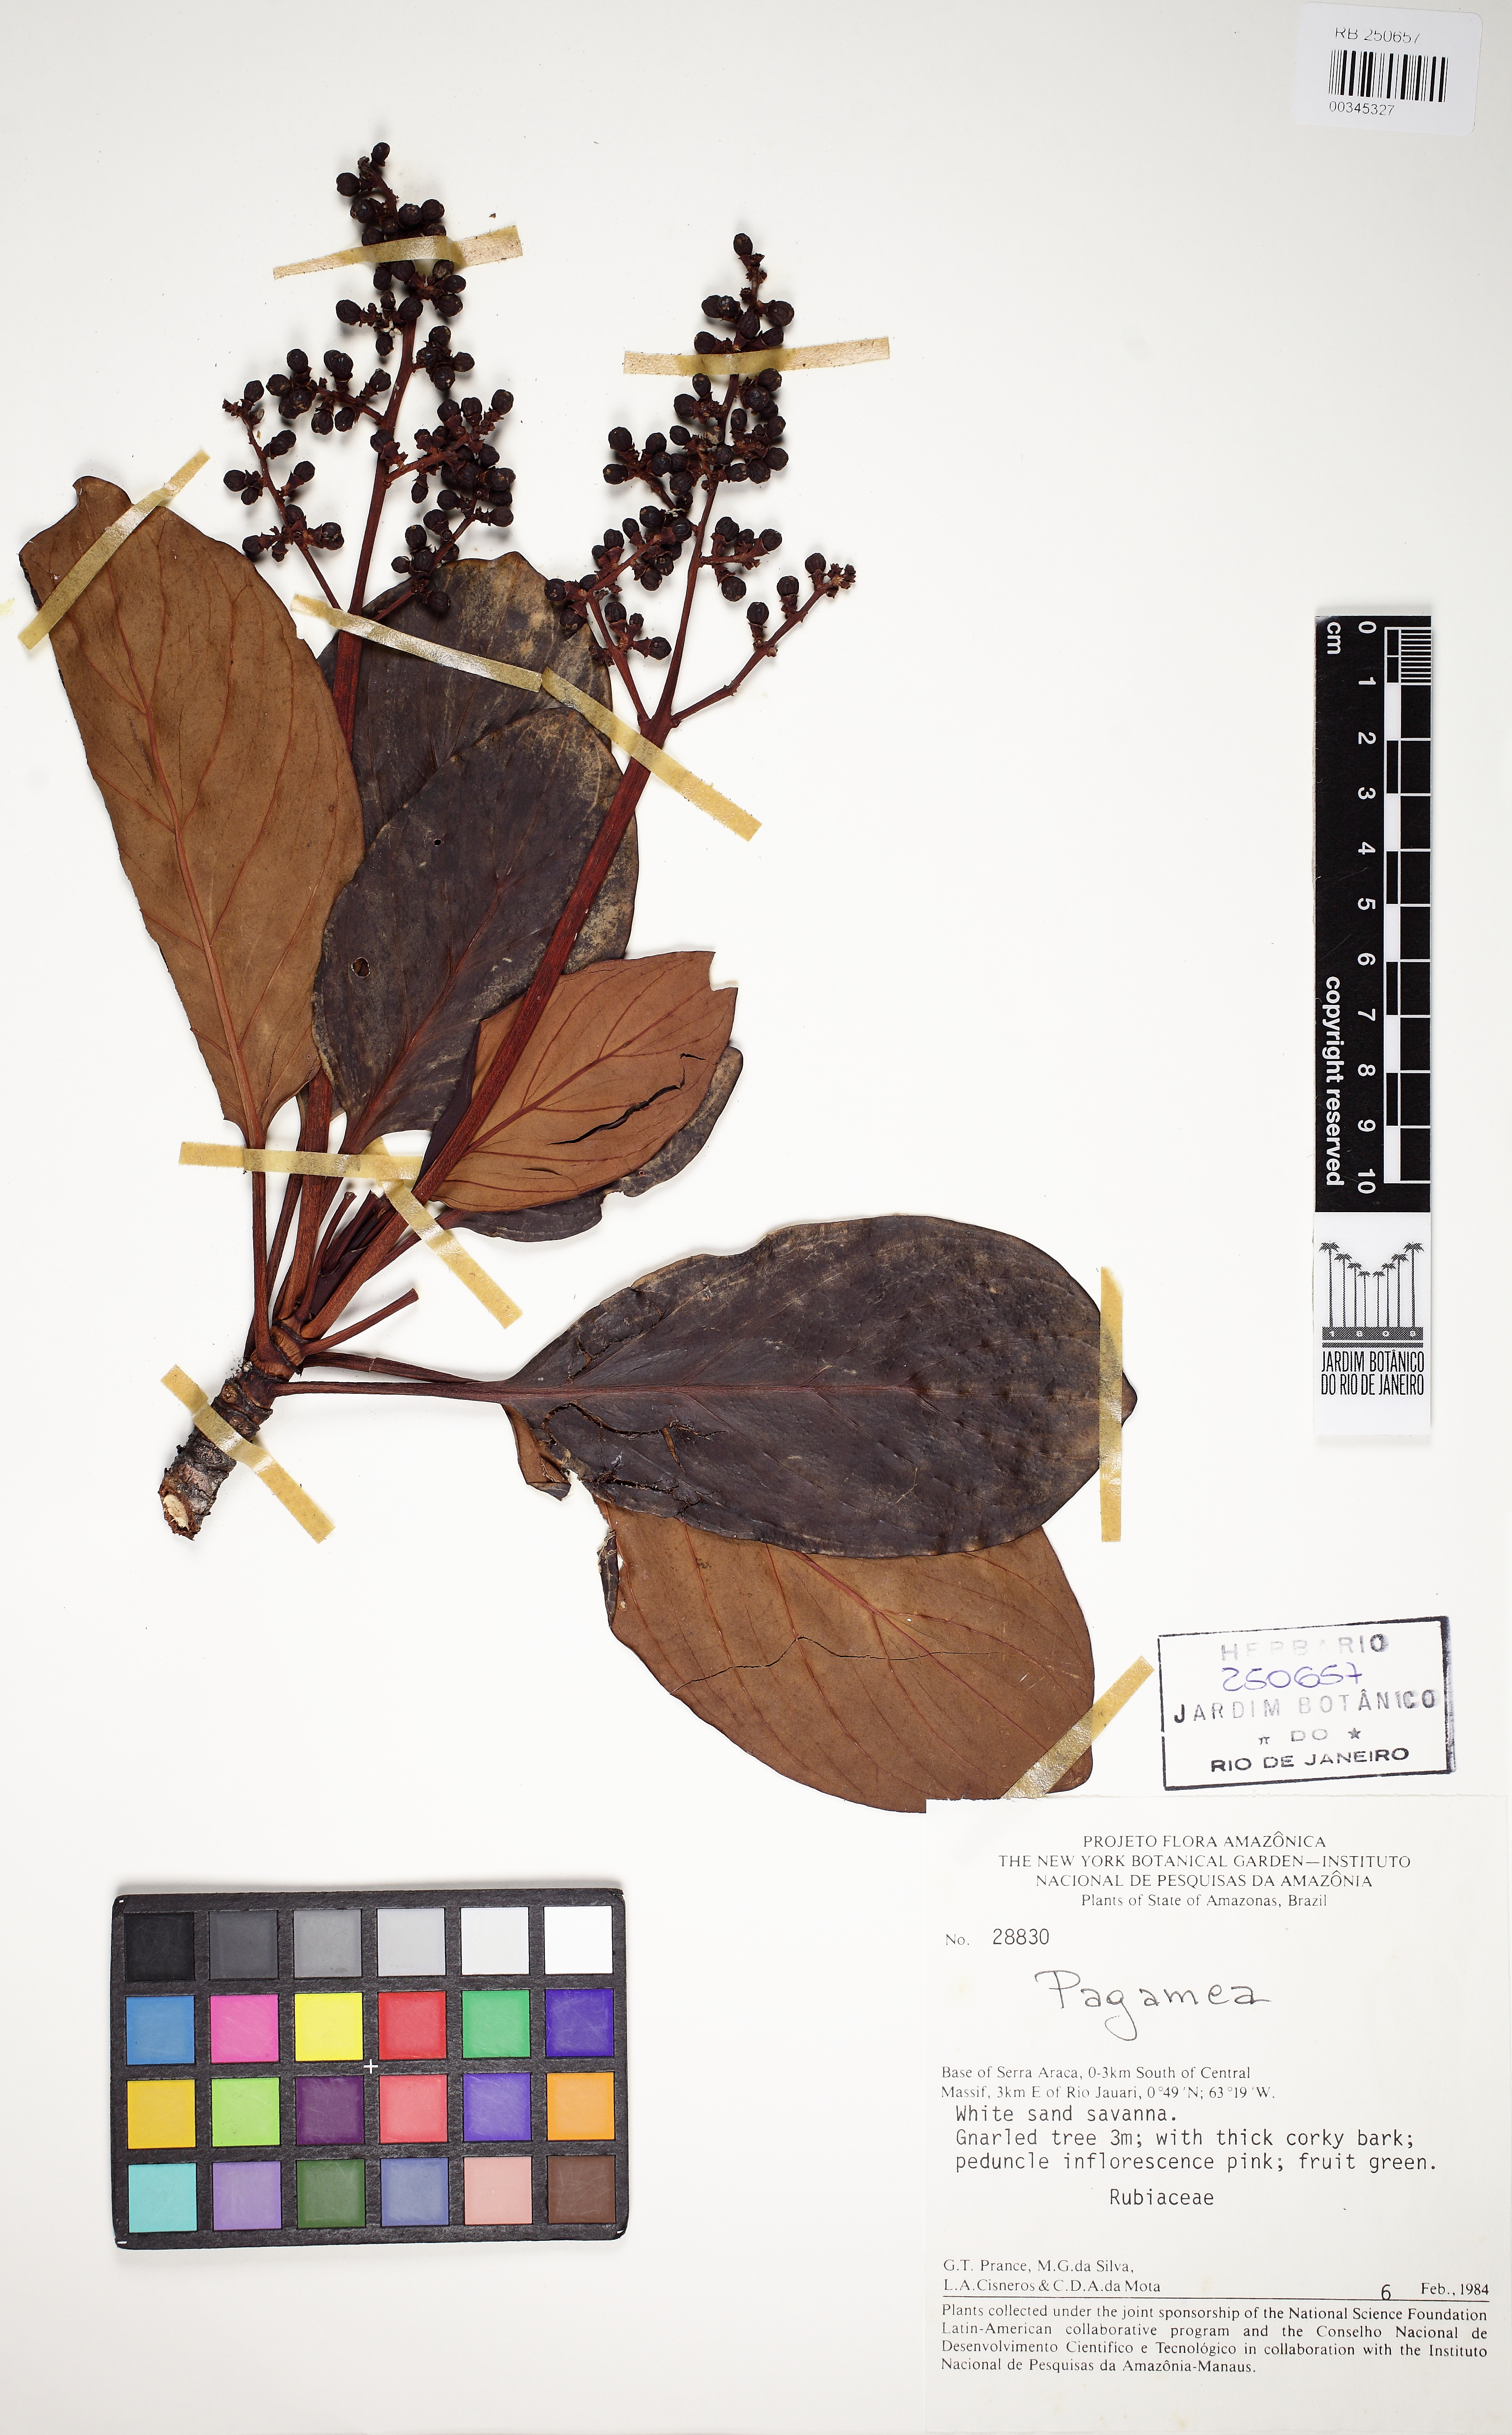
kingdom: Plantae
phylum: Tracheophyta
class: Magnoliopsida
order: Gentianales
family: Rubiaceae
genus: Pagamea
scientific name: Pagamea
